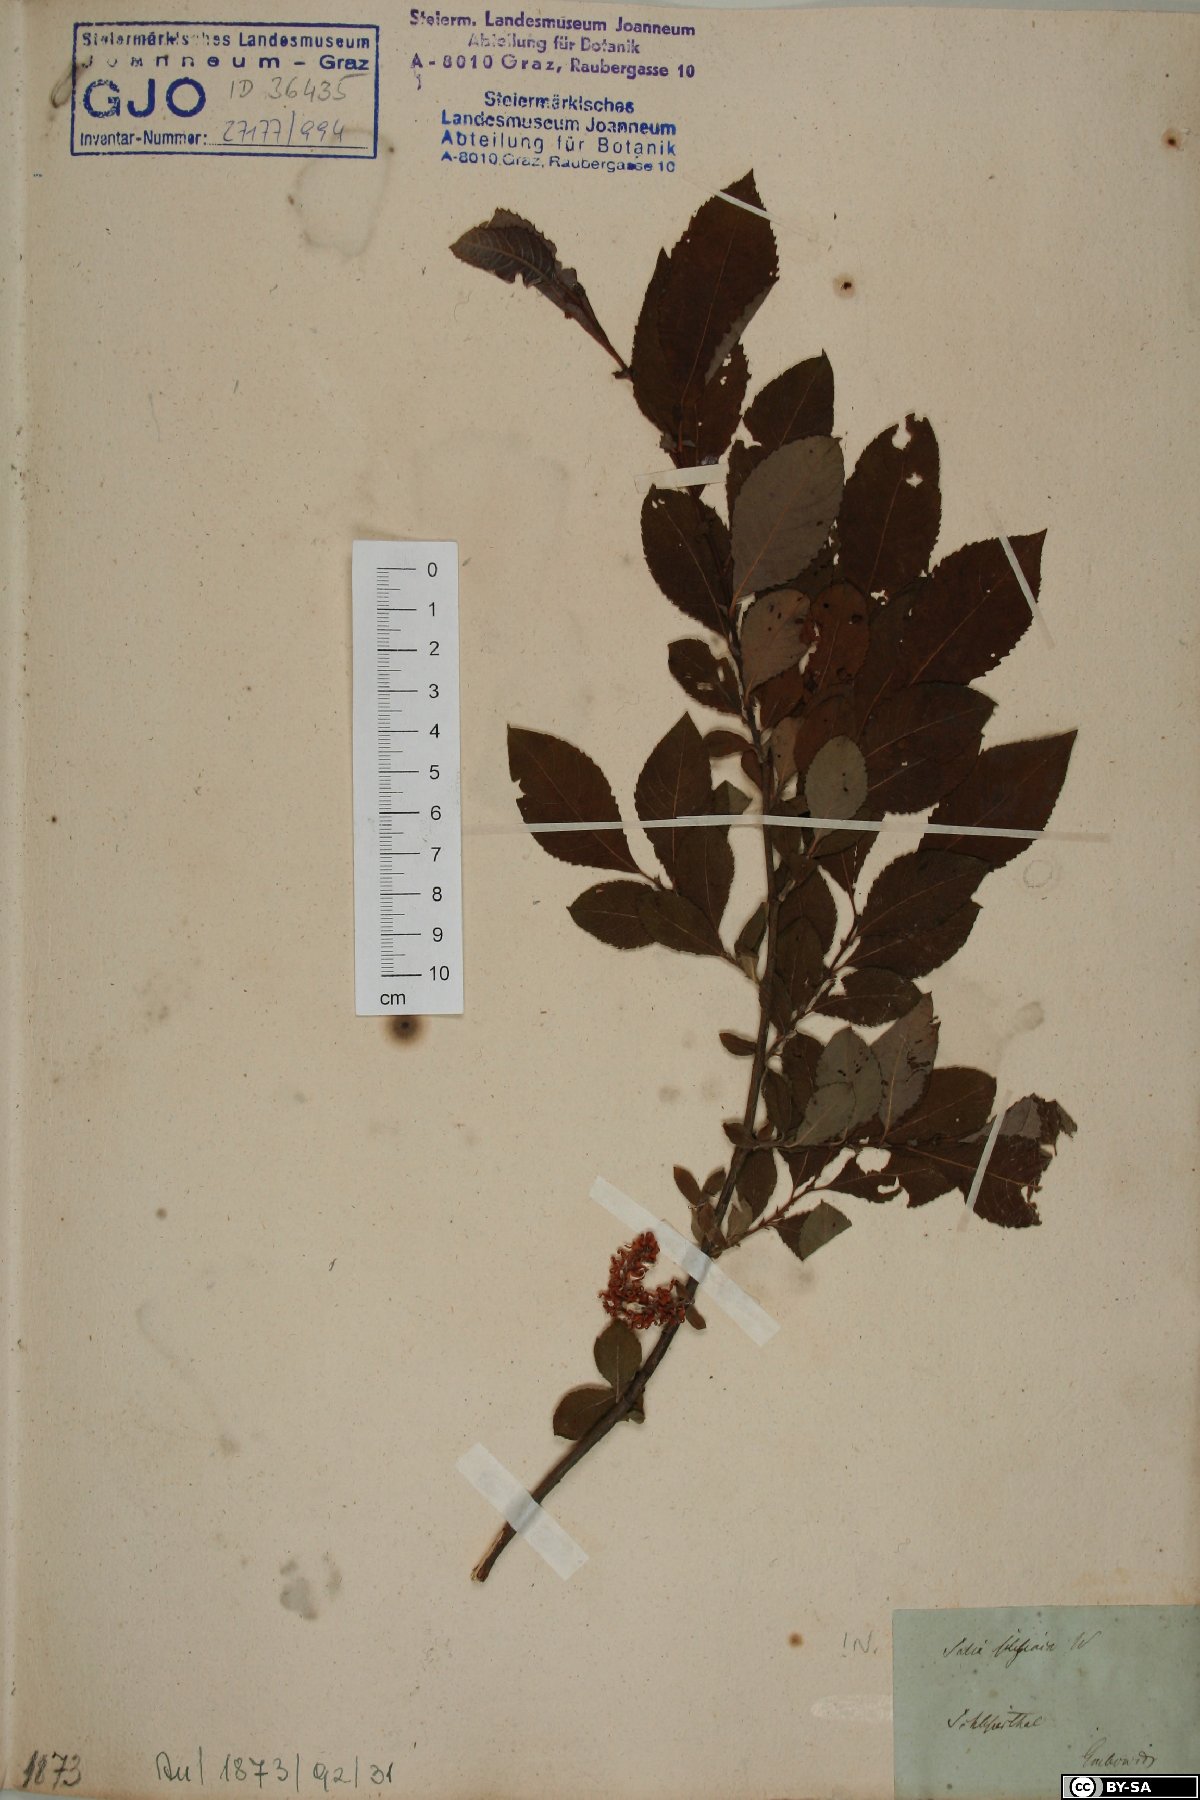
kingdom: Plantae
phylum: Tracheophyta
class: Magnoliopsida
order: Malpighiales
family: Salicaceae
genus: Salix
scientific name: Salix silesiaca
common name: Silesian willow
